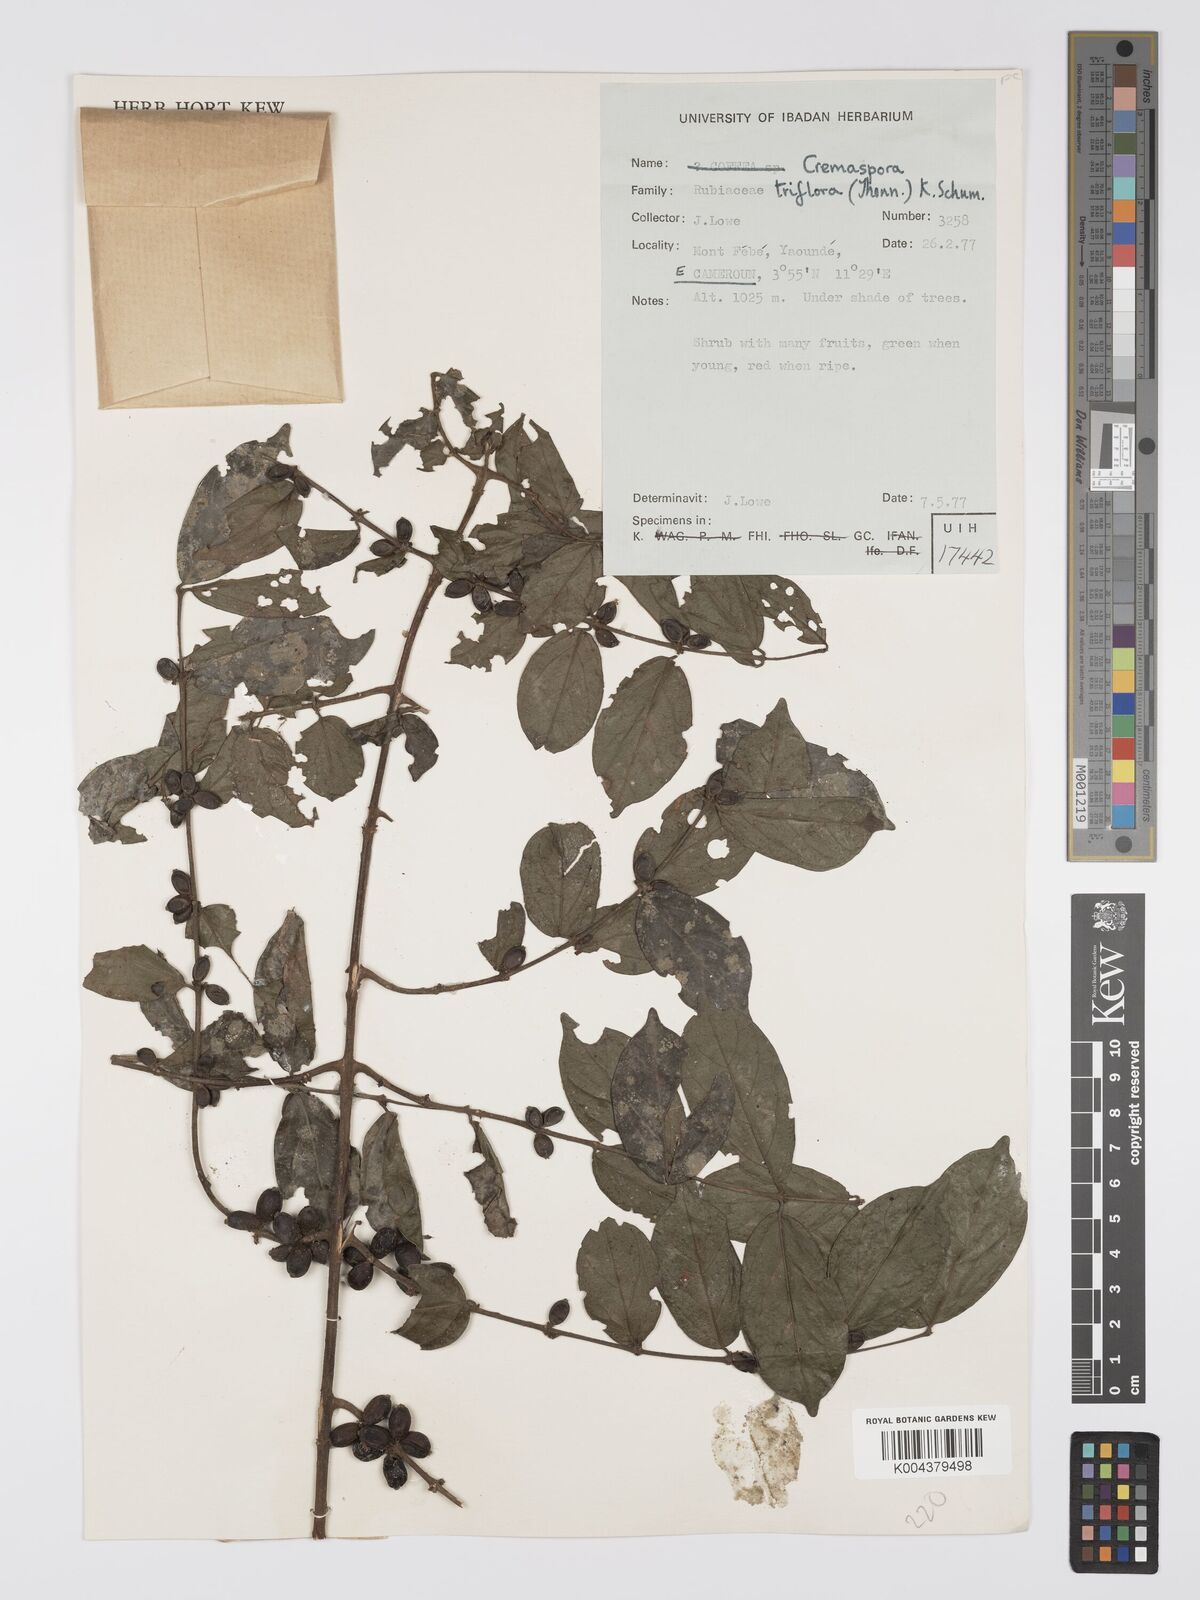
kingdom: Plantae
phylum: Tracheophyta
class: Magnoliopsida
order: Gentianales
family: Rubiaceae
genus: Cremaspora
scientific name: Cremaspora triflora
